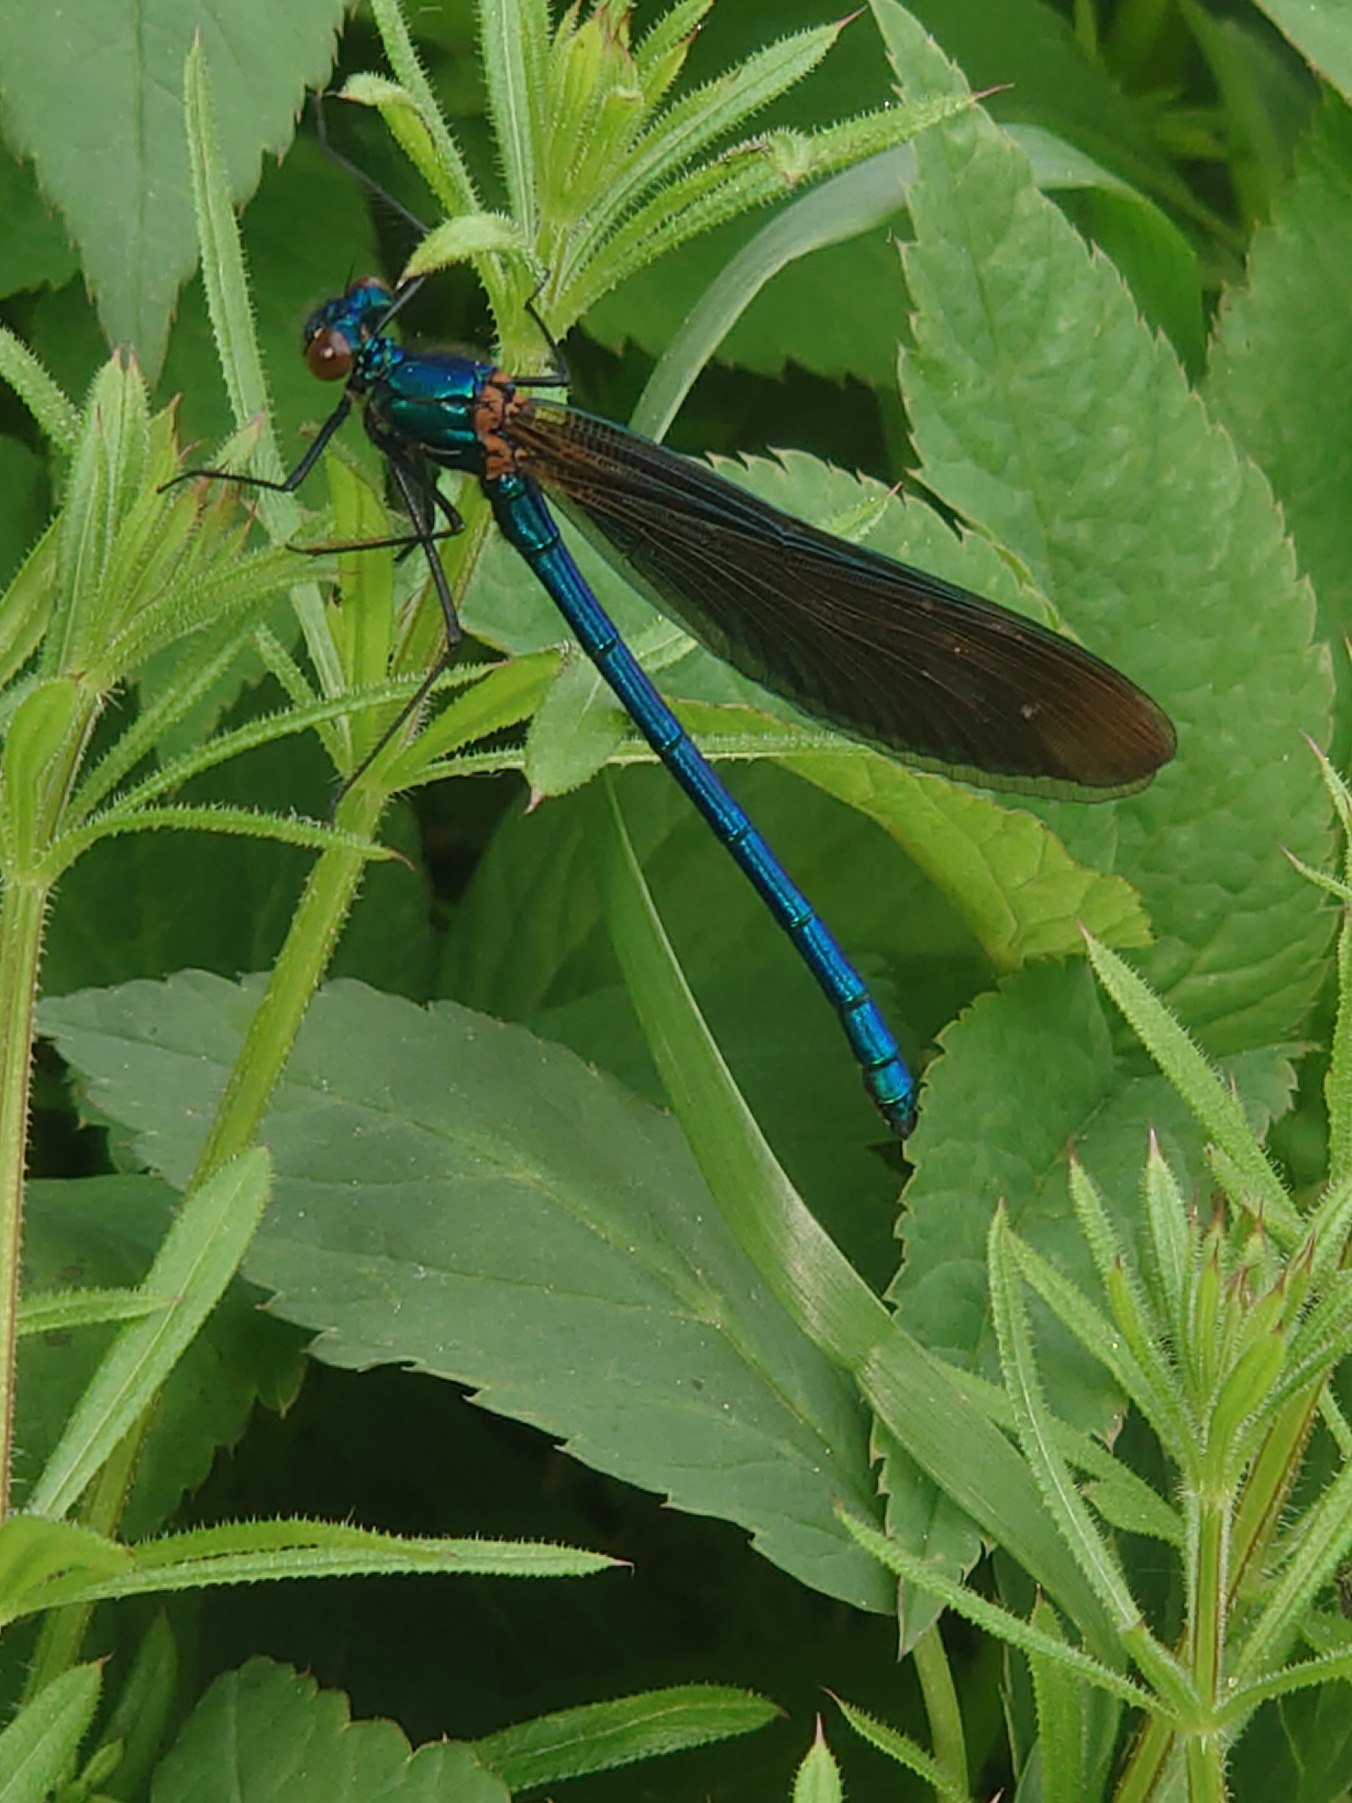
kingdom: Animalia
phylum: Arthropoda
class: Insecta
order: Odonata
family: Calopterygidae
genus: Calopteryx
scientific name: Calopteryx virgo
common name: Blåvinget pragtvandnymfe
